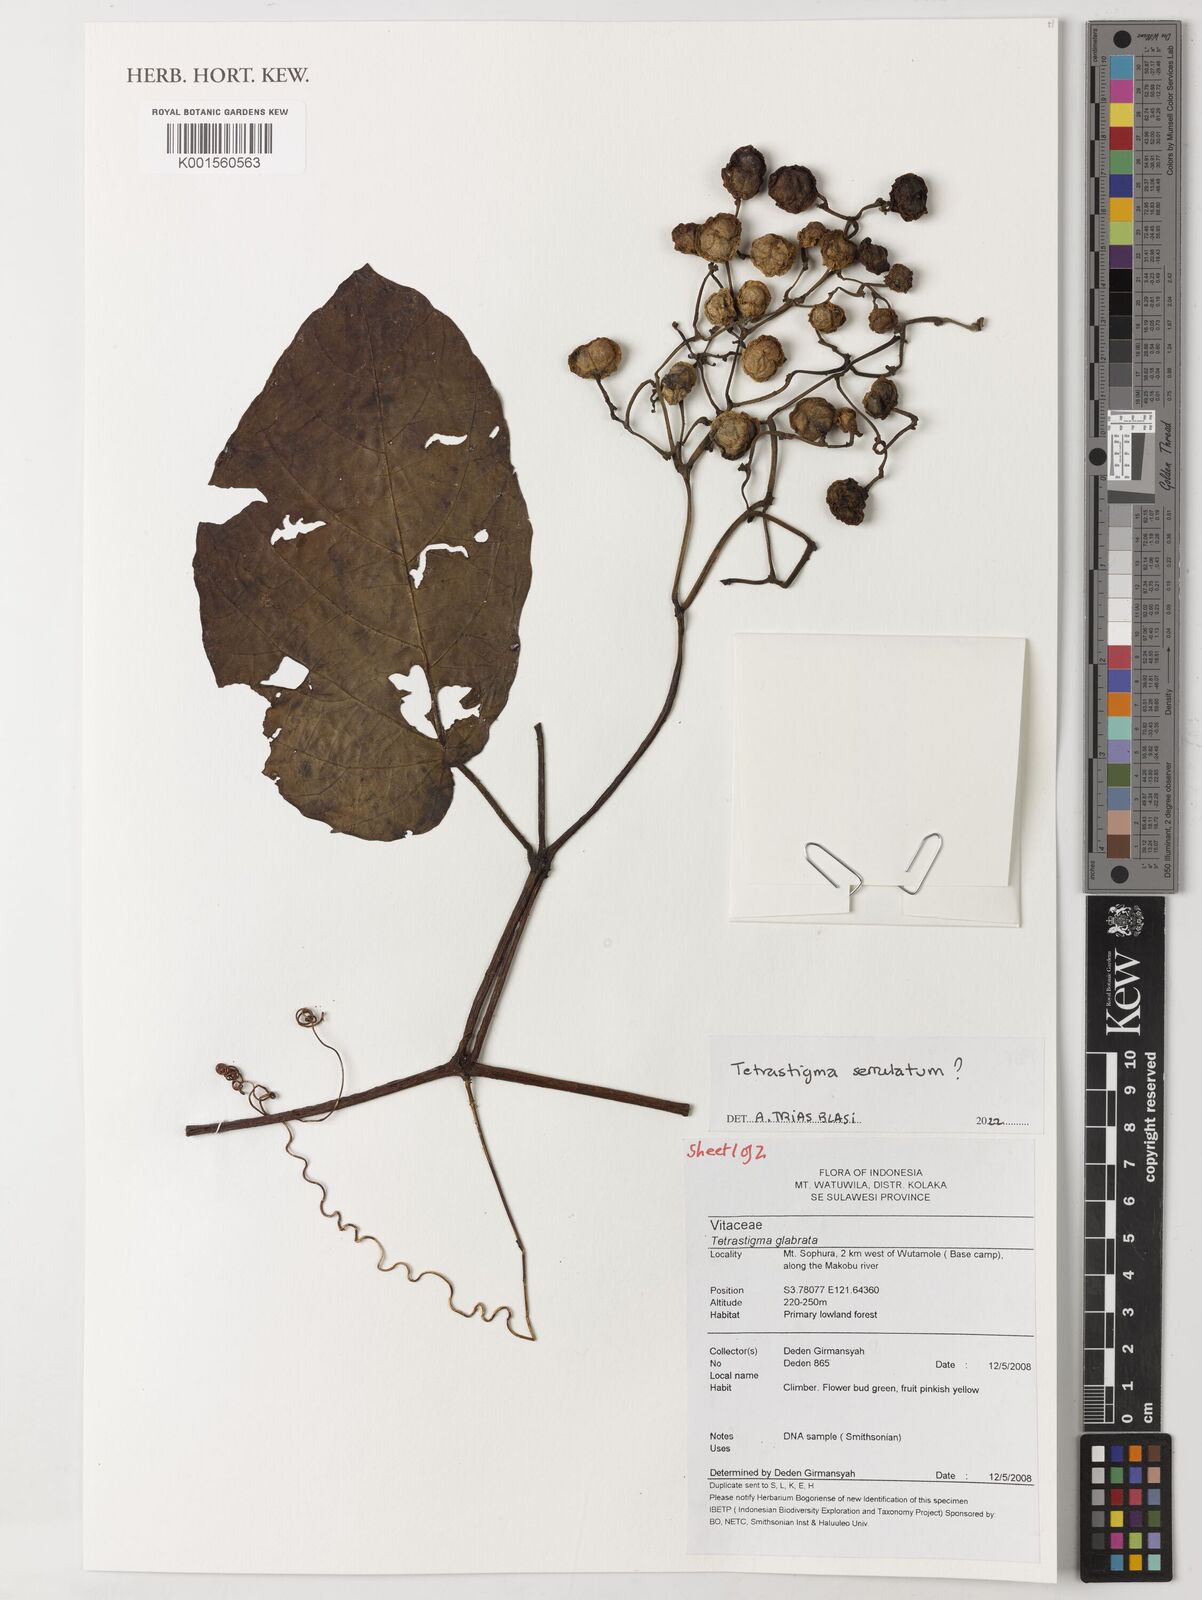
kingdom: Plantae
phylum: Tracheophyta
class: Magnoliopsida
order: Vitales
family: Vitaceae
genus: Tetrastigma
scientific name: Tetrastigma serrulatum
